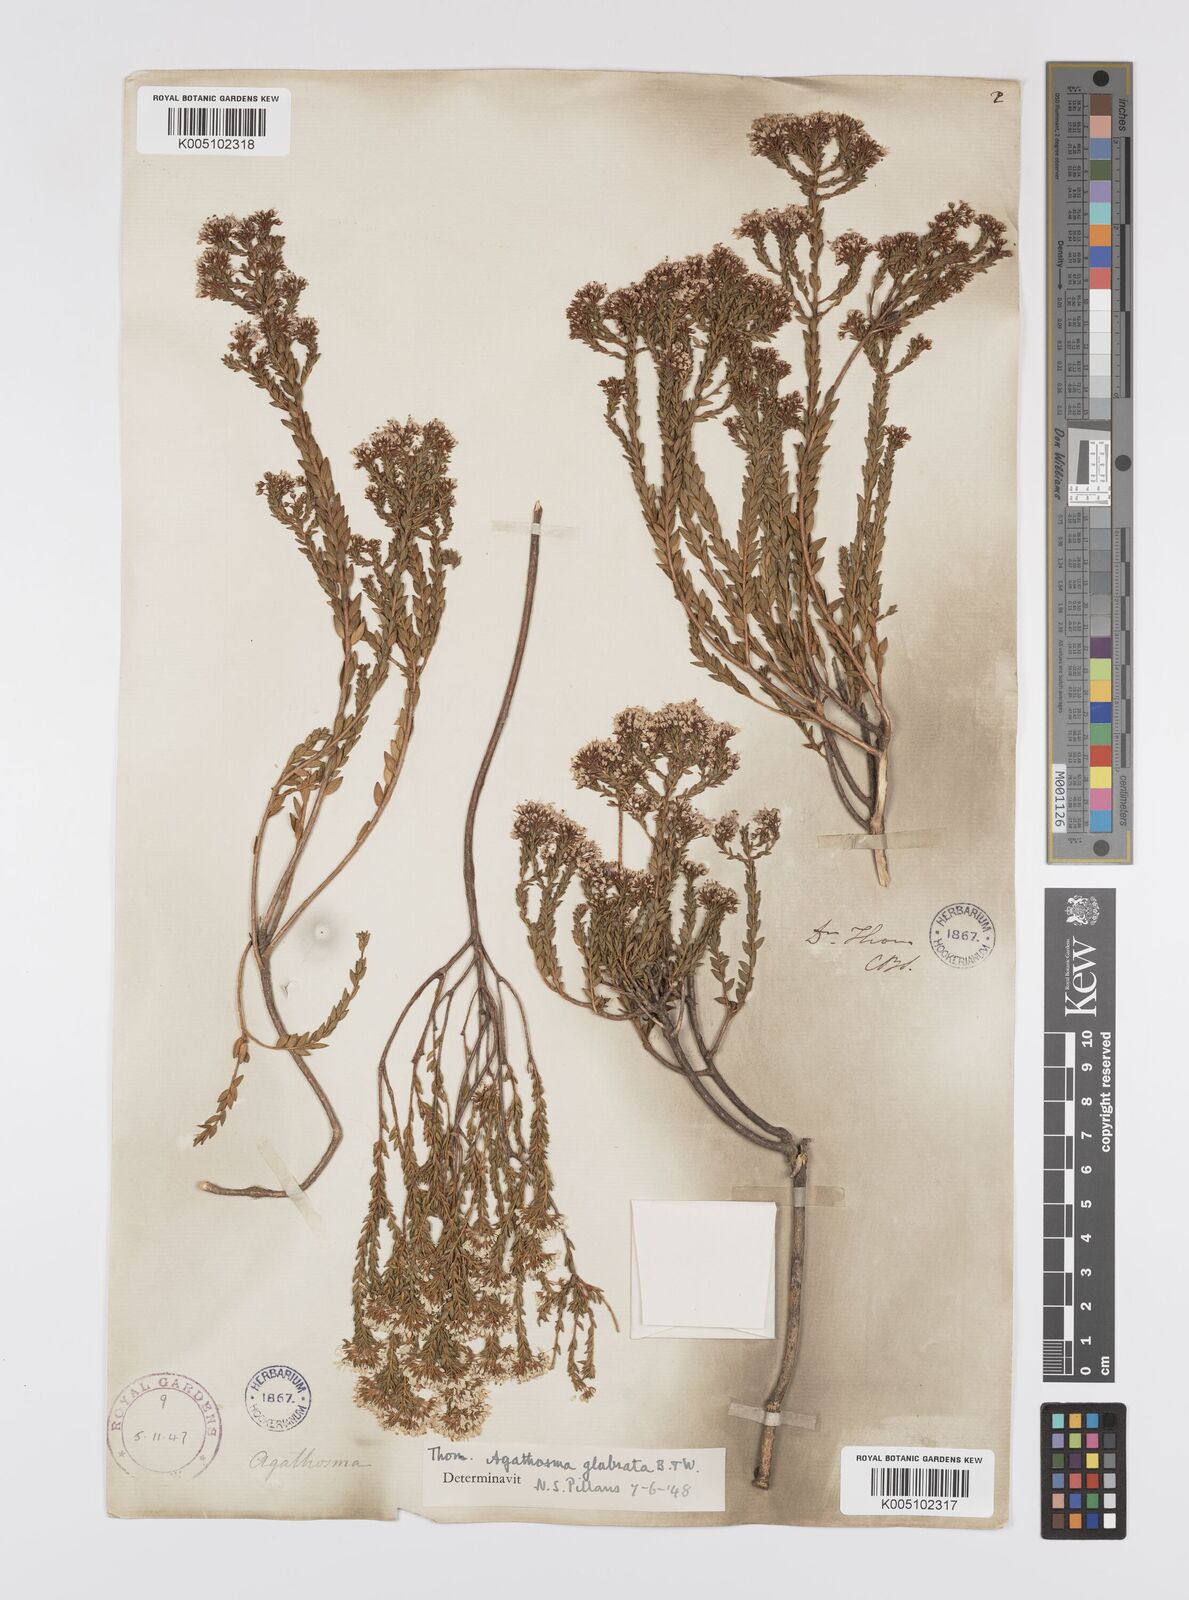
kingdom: Plantae
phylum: Tracheophyta
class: Magnoliopsida
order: Sapindales
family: Rutaceae
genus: Agathosma
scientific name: Agathosma
